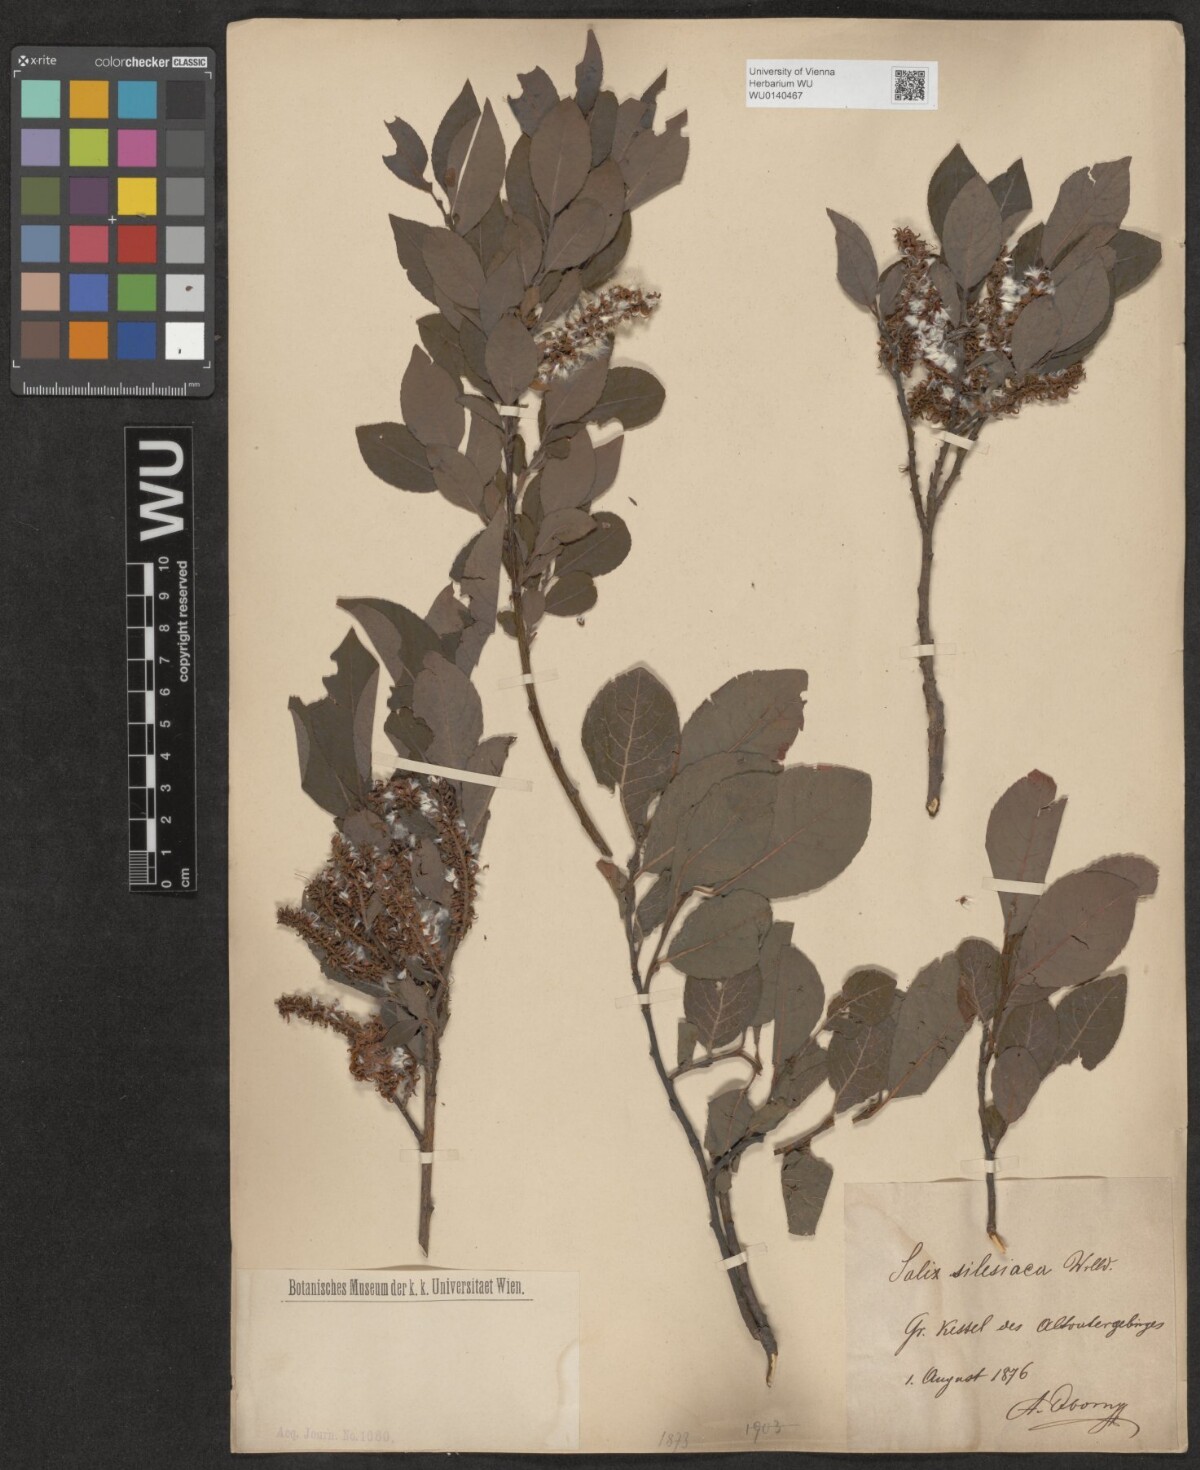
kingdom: Plantae
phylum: Tracheophyta
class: Magnoliopsida
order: Malpighiales
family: Salicaceae
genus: Salix
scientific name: Salix silesiaca
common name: Silesian willow
